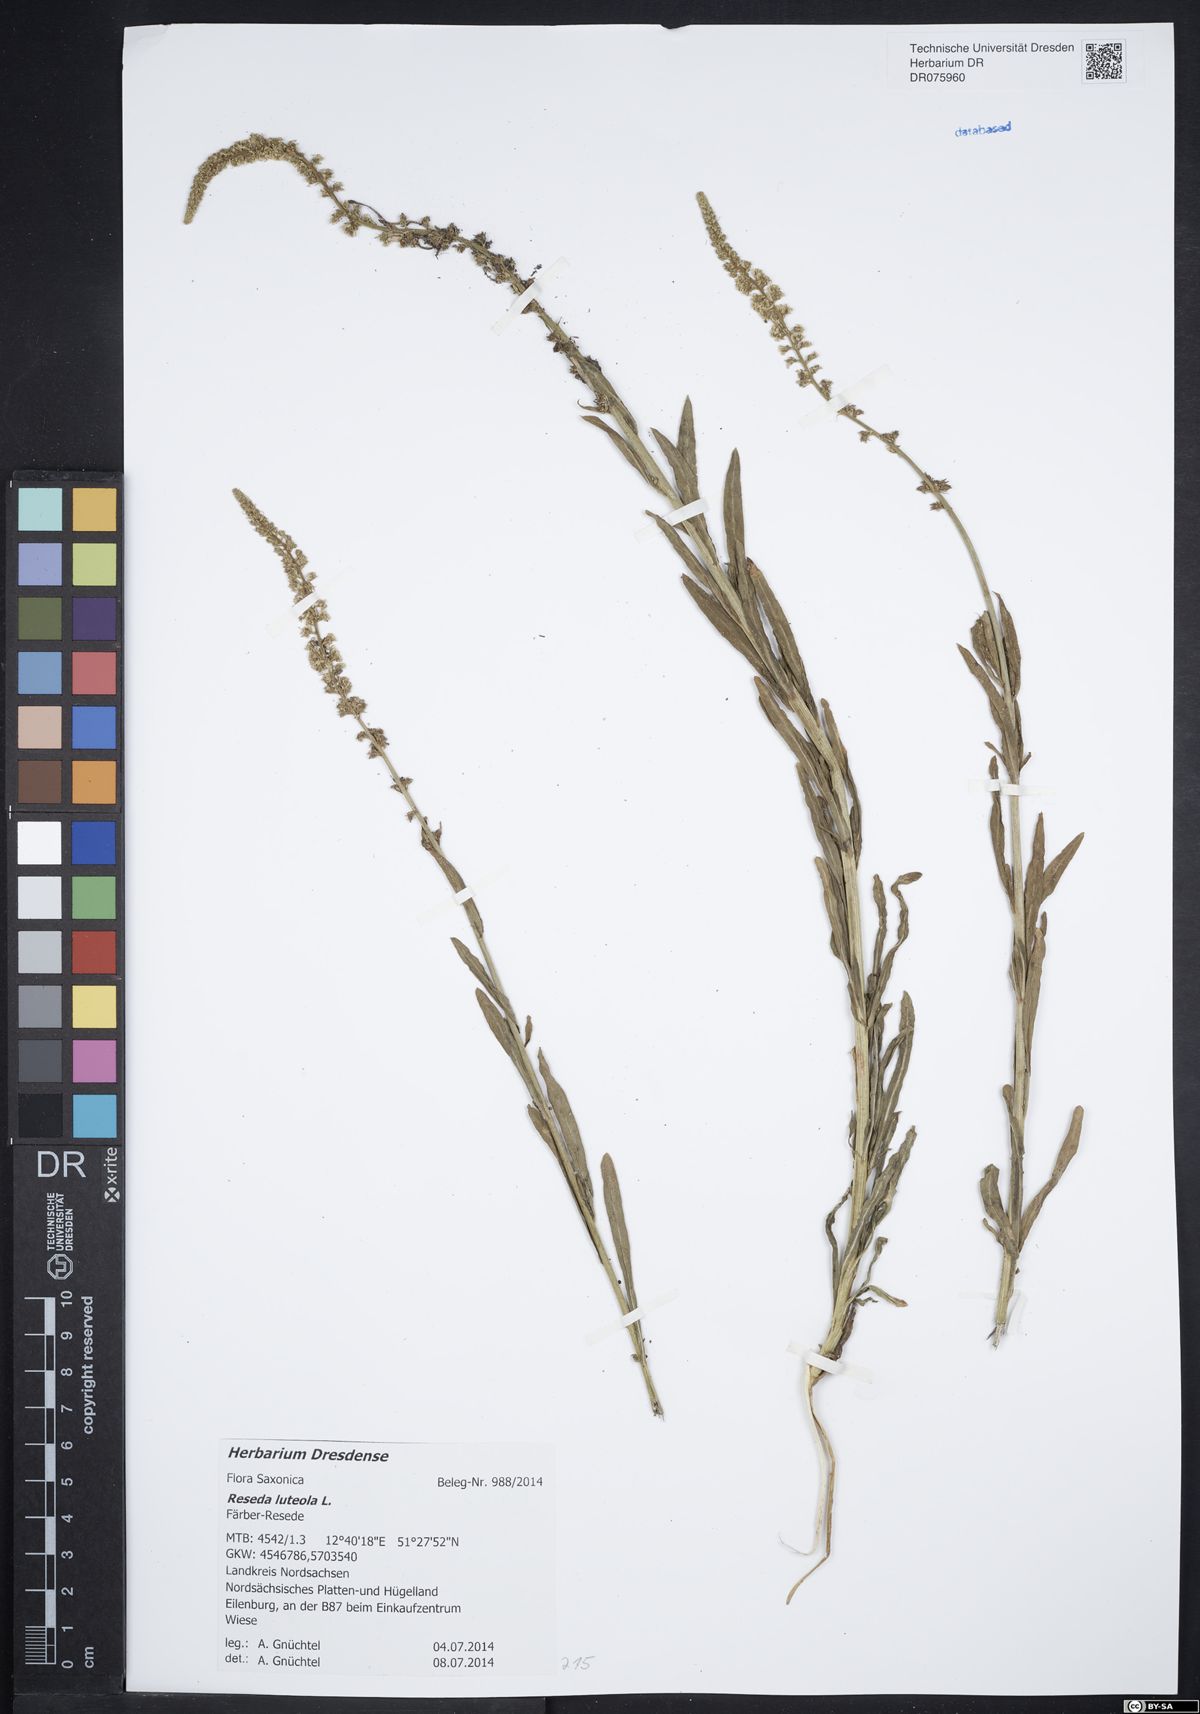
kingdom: Plantae
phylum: Tracheophyta
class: Magnoliopsida
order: Brassicales
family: Resedaceae
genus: Reseda
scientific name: Reseda luteola
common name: Weld
